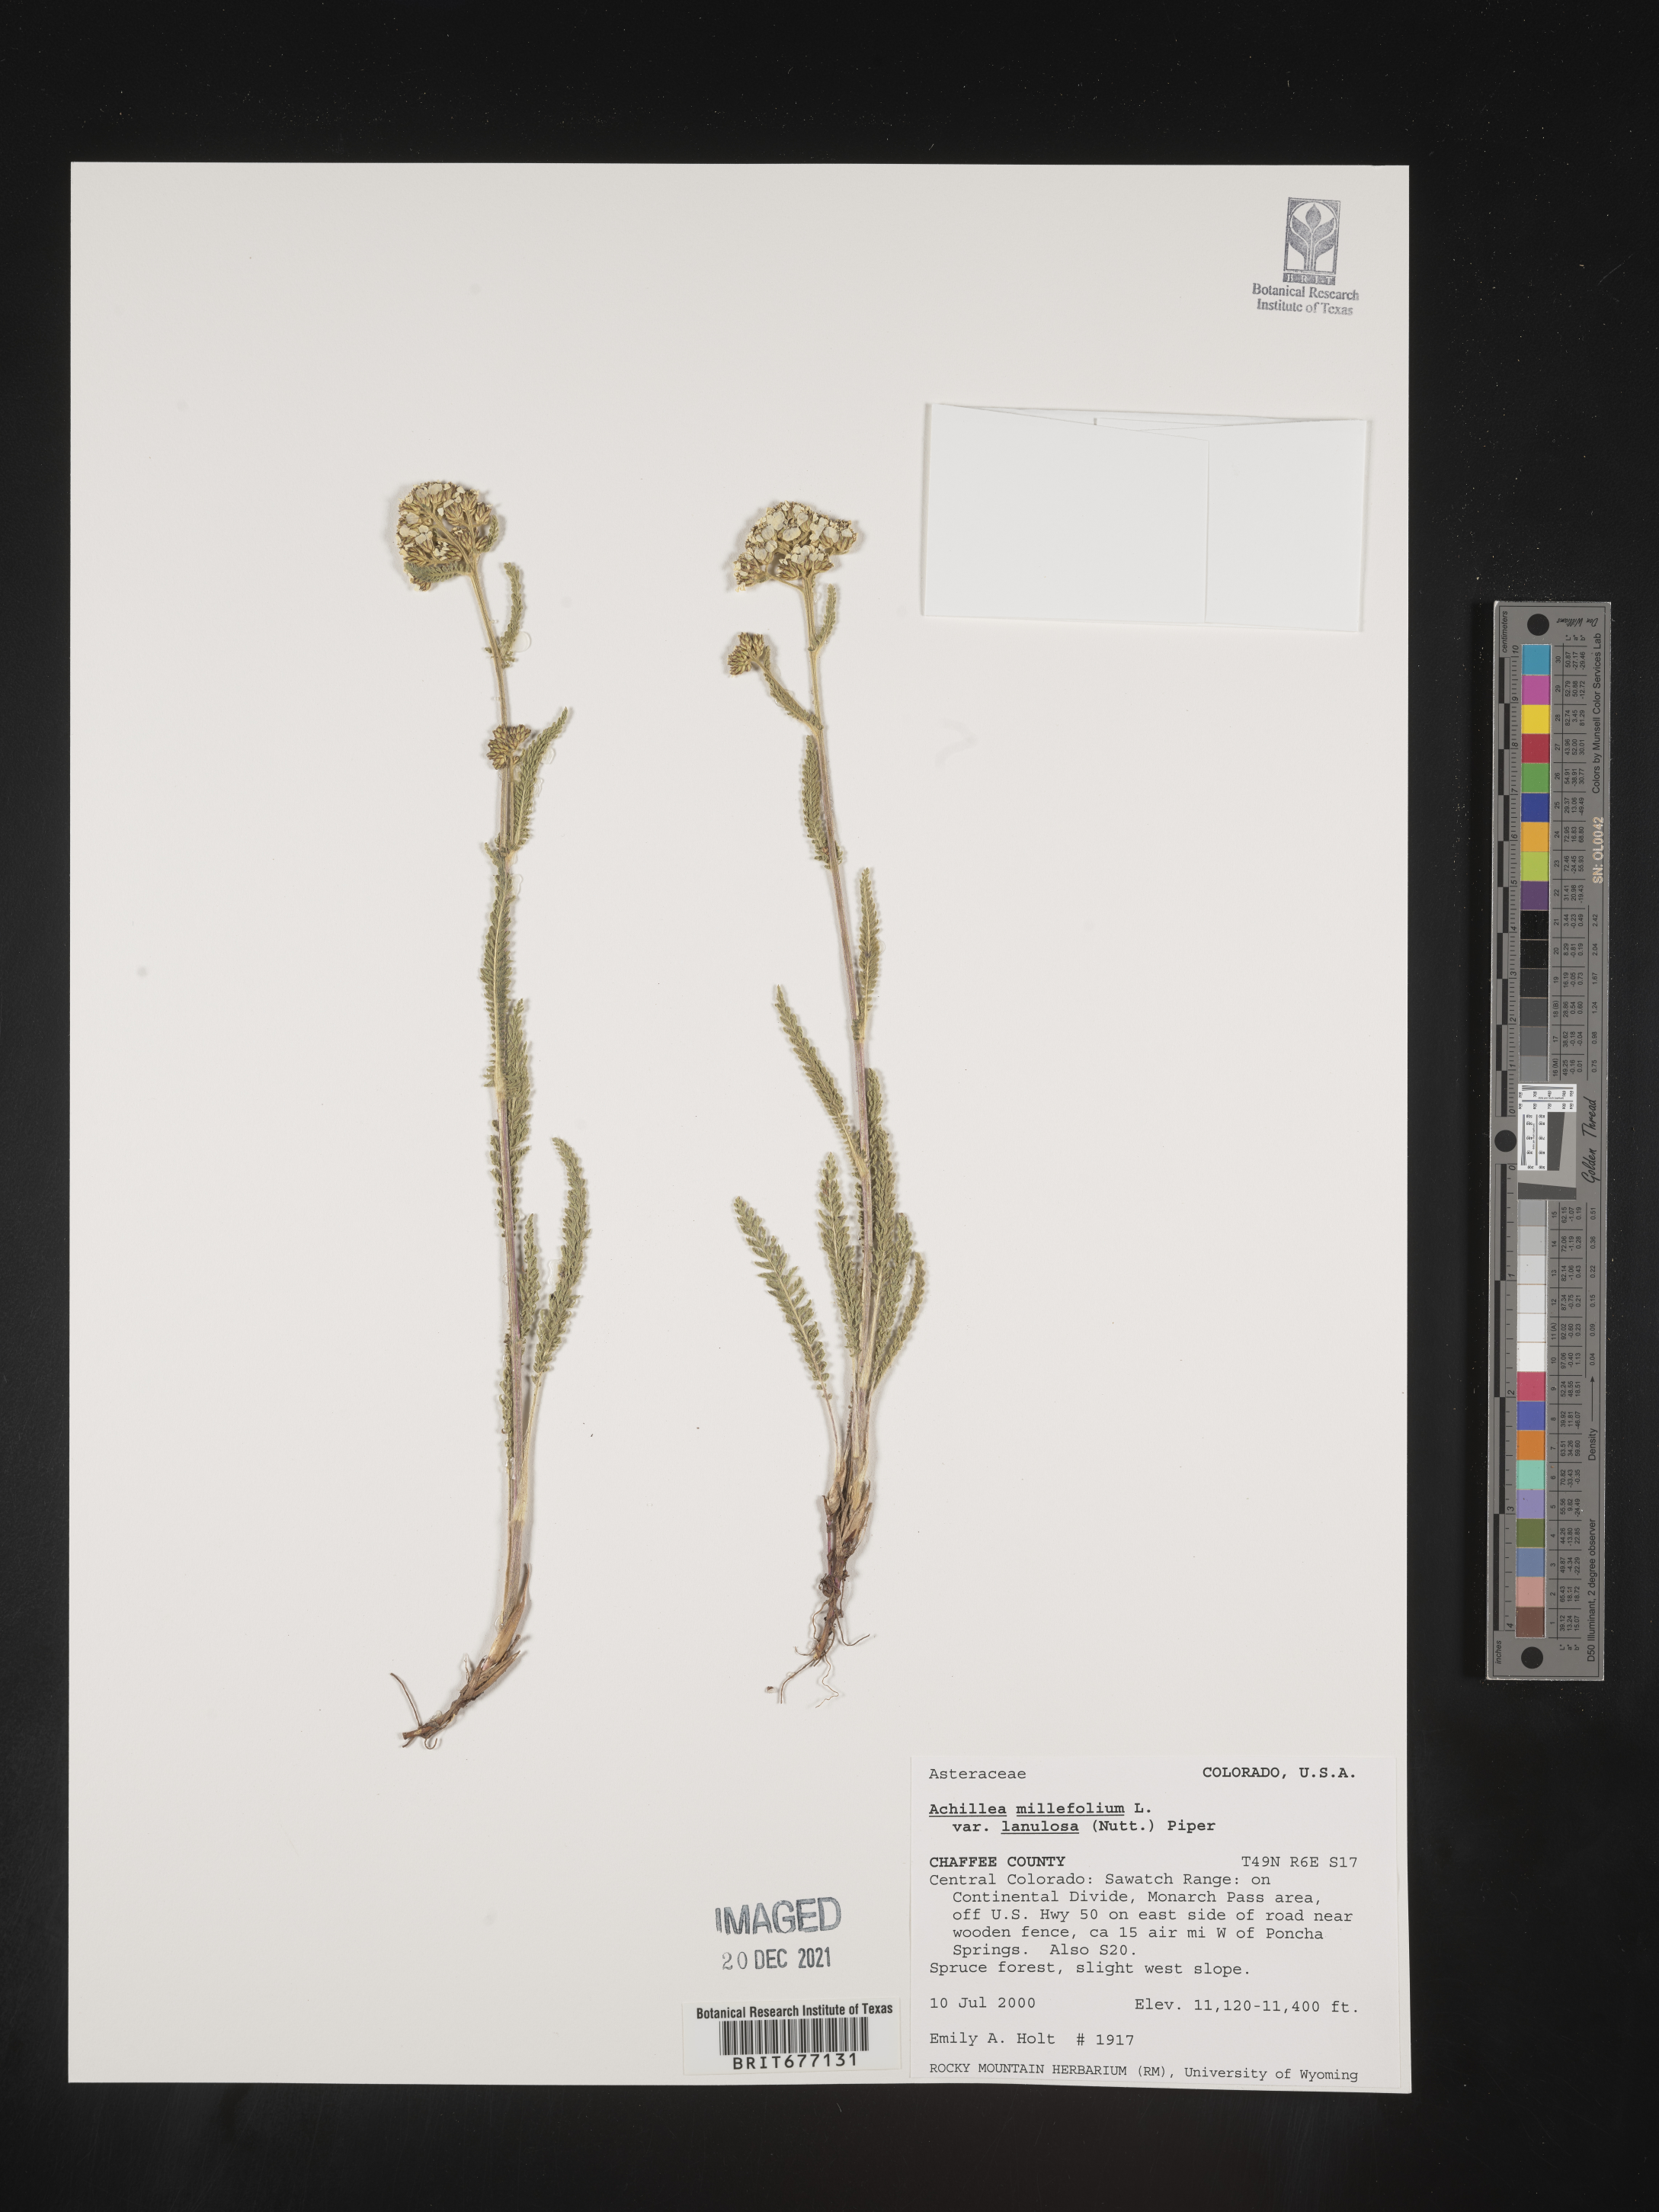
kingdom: Plantae
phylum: Tracheophyta
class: Magnoliopsida
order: Asterales
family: Asteraceae
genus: Achillea
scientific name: Achillea millefolium
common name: Yarrow
